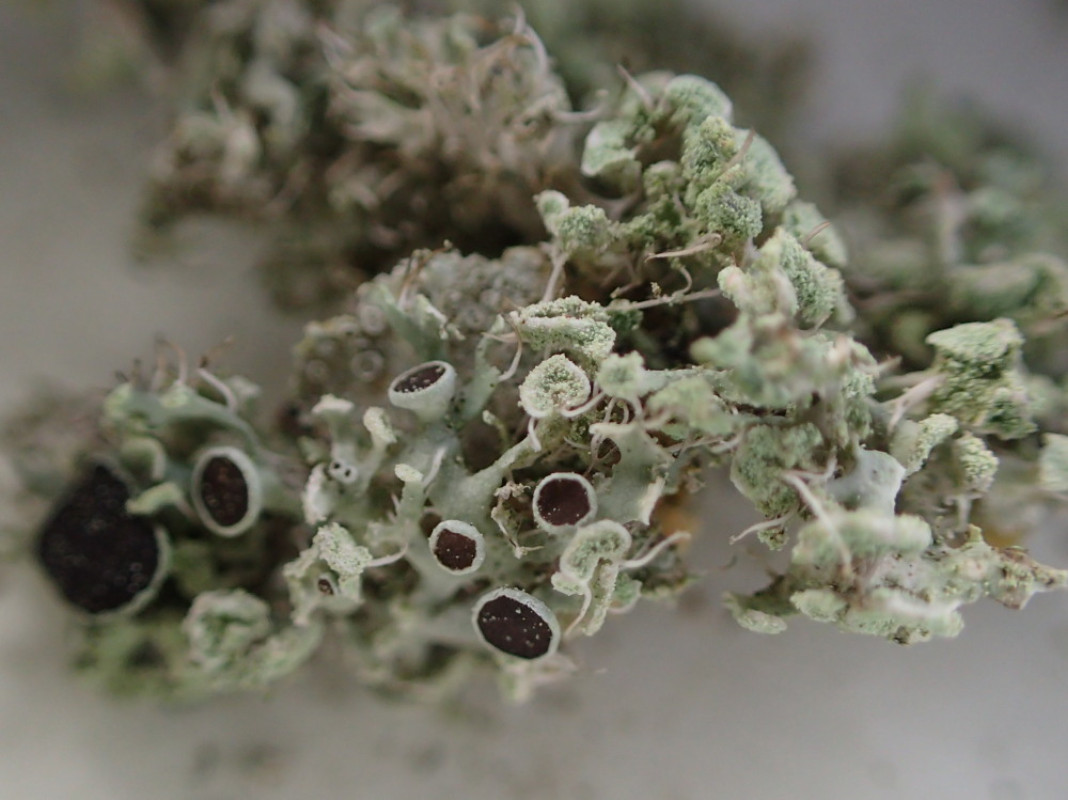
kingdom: Fungi
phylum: Ascomycota
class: Lecanoromycetes
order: Caliciales
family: Physciaceae
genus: Physcia
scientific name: Physcia tenella
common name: spæd rosetlav
